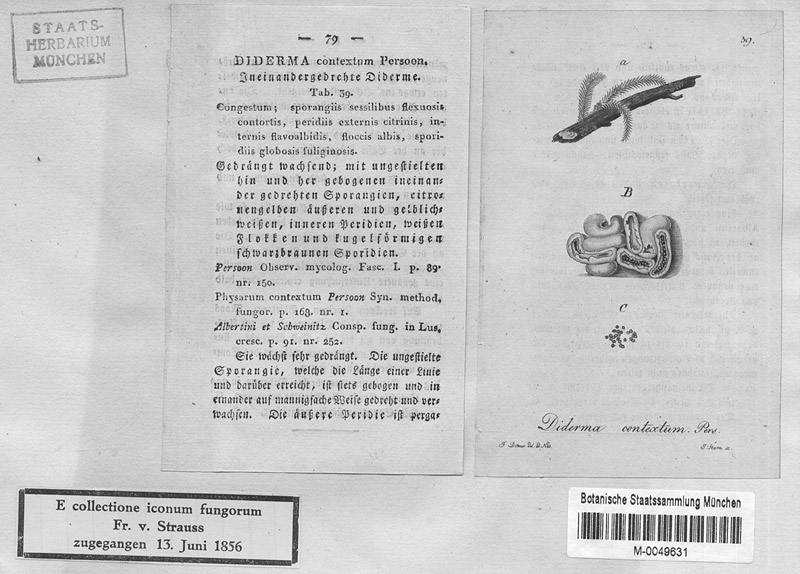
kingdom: Protozoa
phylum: Mycetozoa
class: Myxomycetes
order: Physarales
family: Physaraceae
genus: Physarum
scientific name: Physarum contextum
